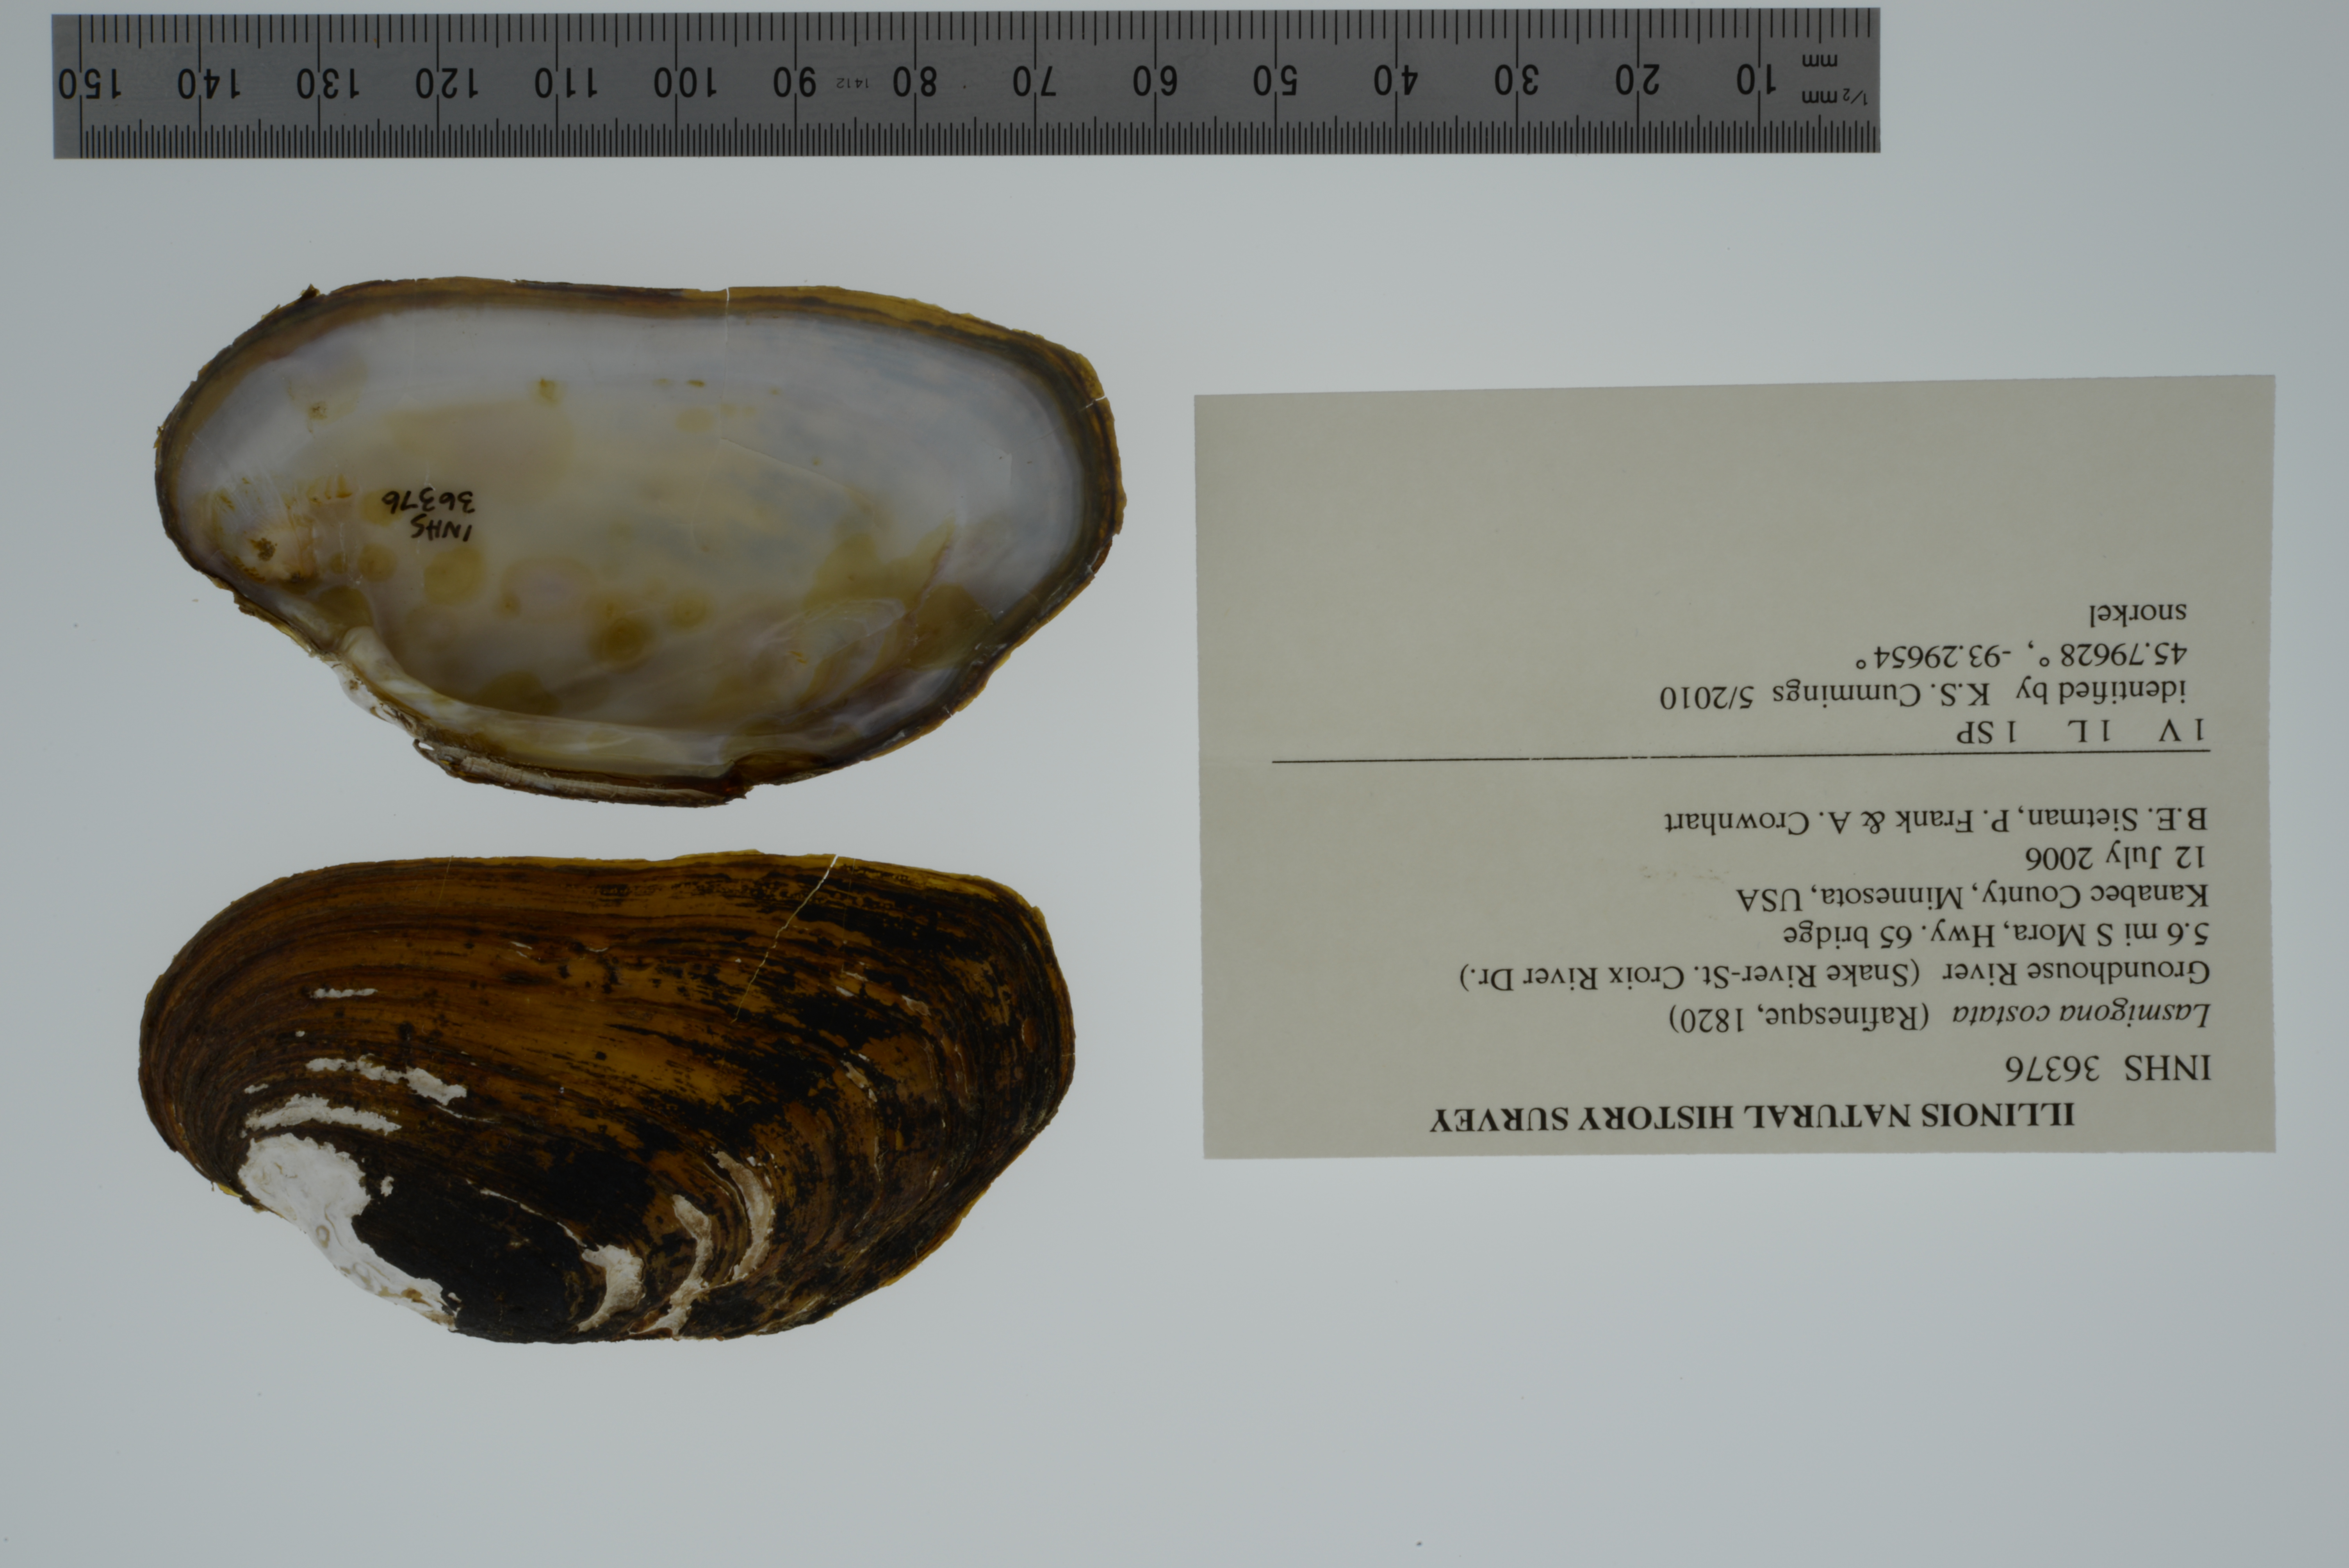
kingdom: Animalia
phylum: Mollusca
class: Bivalvia
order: Unionida
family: Unionidae
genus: Lasmigona
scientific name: Lasmigona costata
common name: Flutedshell
